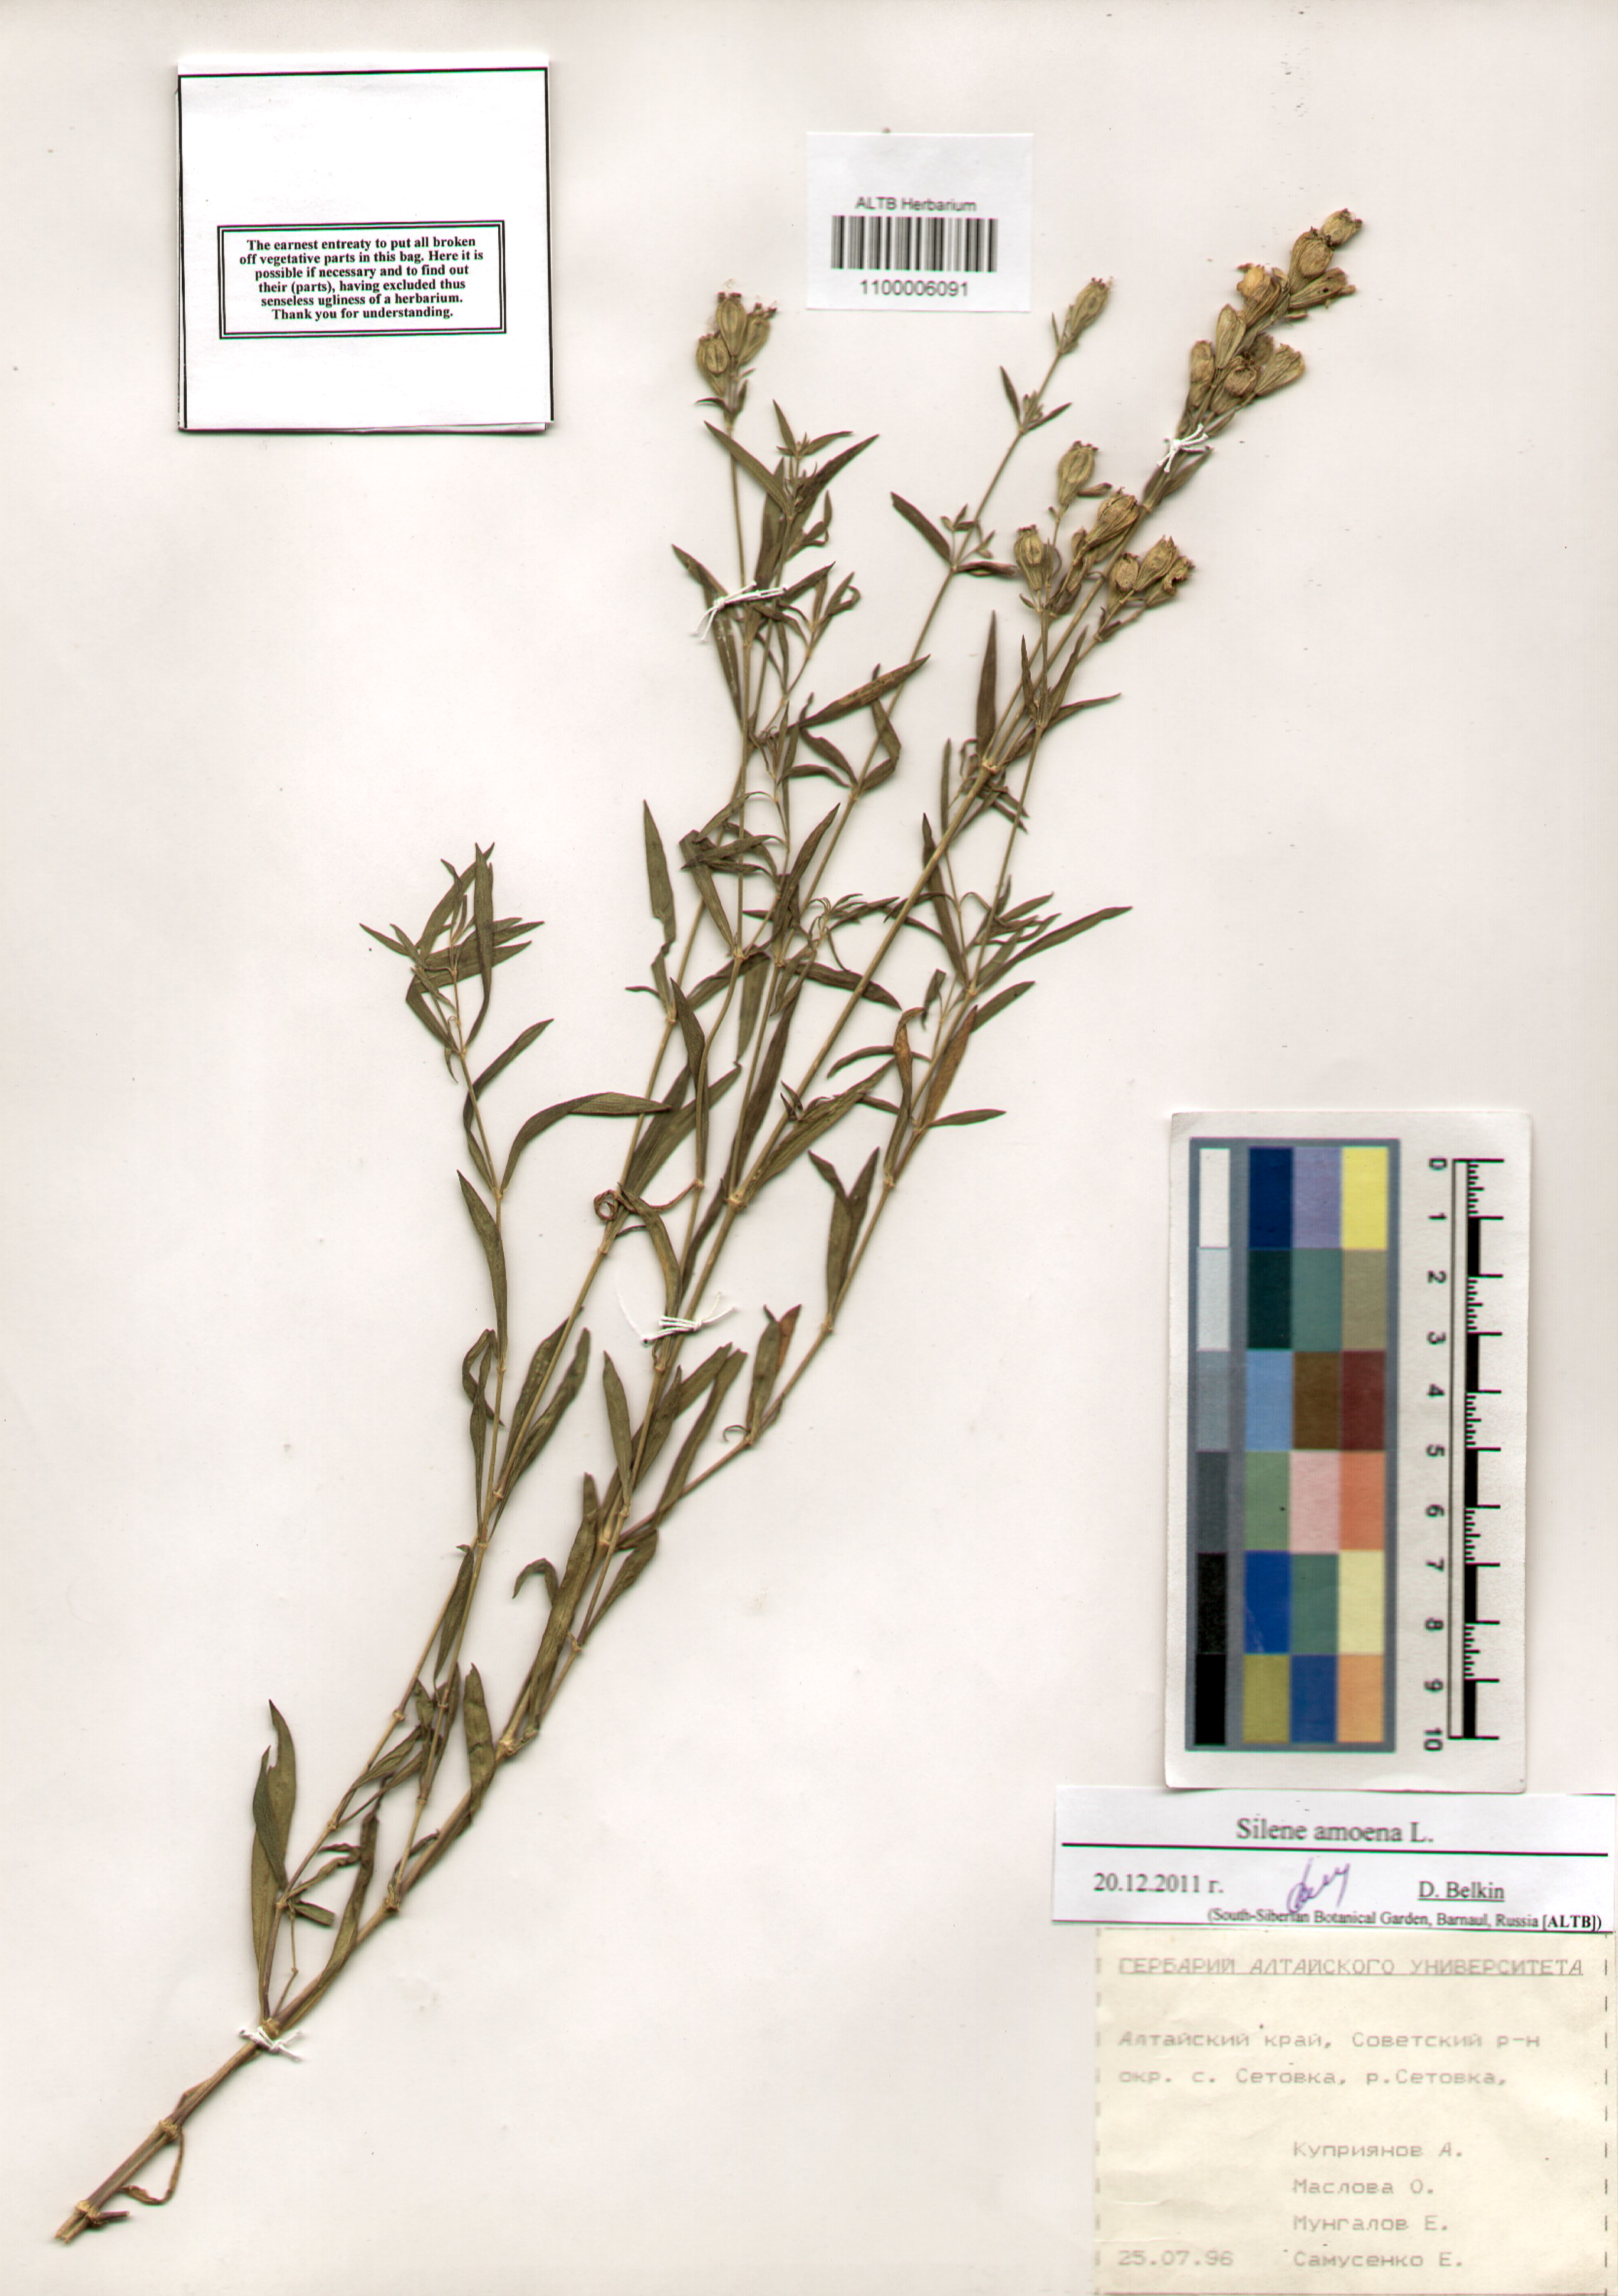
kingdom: Plantae
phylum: Tracheophyta
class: Magnoliopsida
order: Caryophyllales
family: Caryophyllaceae
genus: Silene
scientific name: Silene amoena
